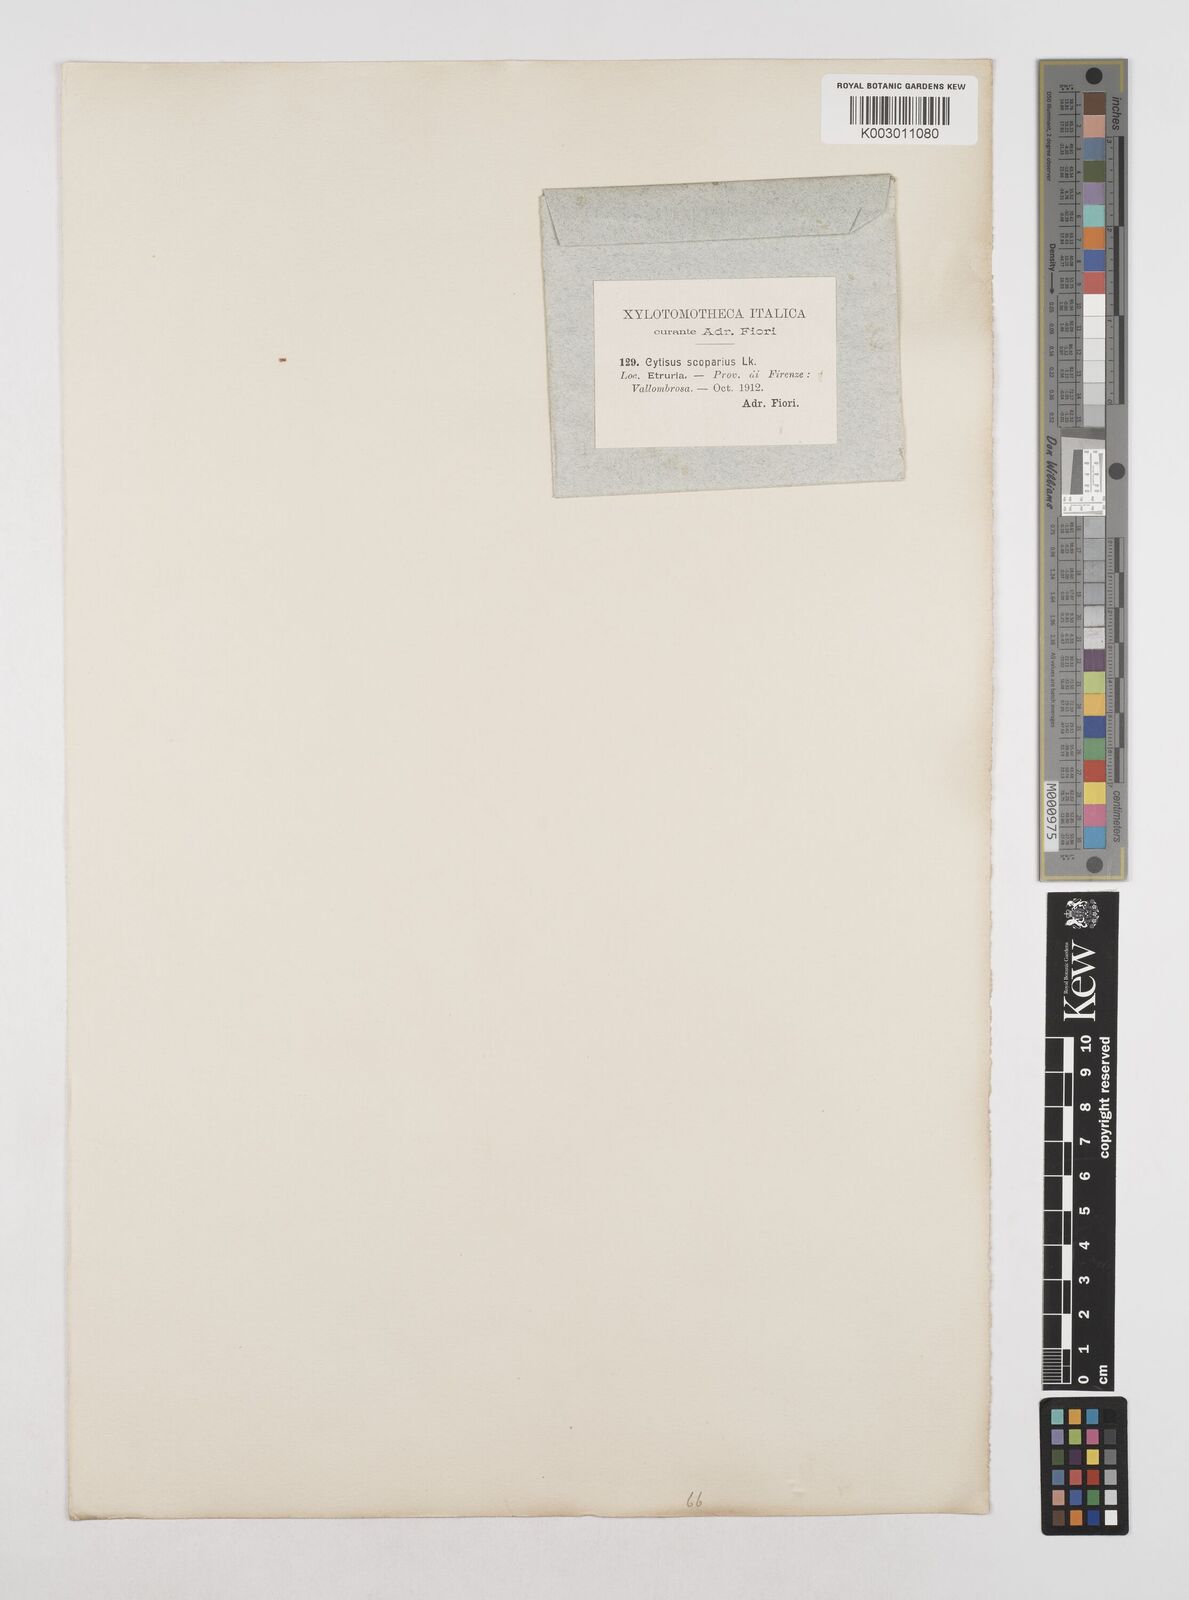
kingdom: Plantae
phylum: Tracheophyta
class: Magnoliopsida
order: Fabales
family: Fabaceae
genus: Cytisus
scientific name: Cytisus scoparius
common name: Scotch broom
